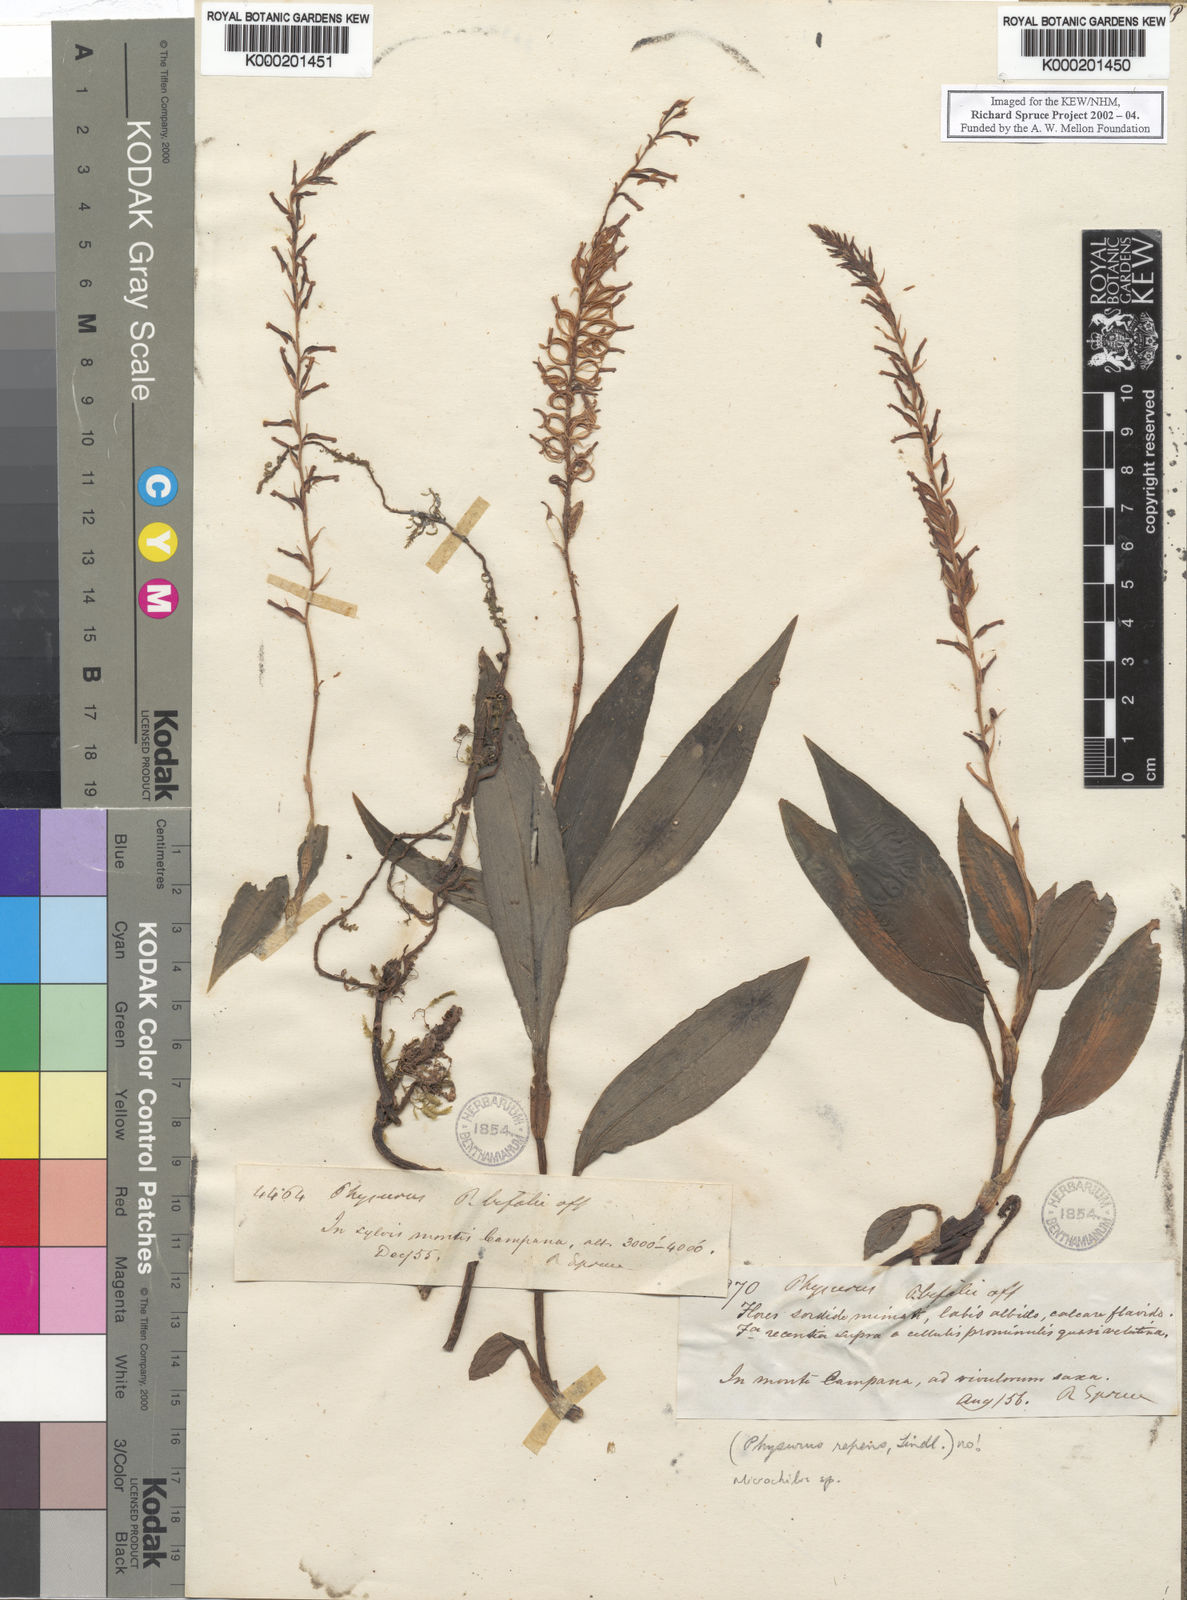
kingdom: Plantae
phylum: Tracheophyta
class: Liliopsida
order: Asparagales
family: Orchidaceae
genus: Erythrodes
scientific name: Erythrodes
